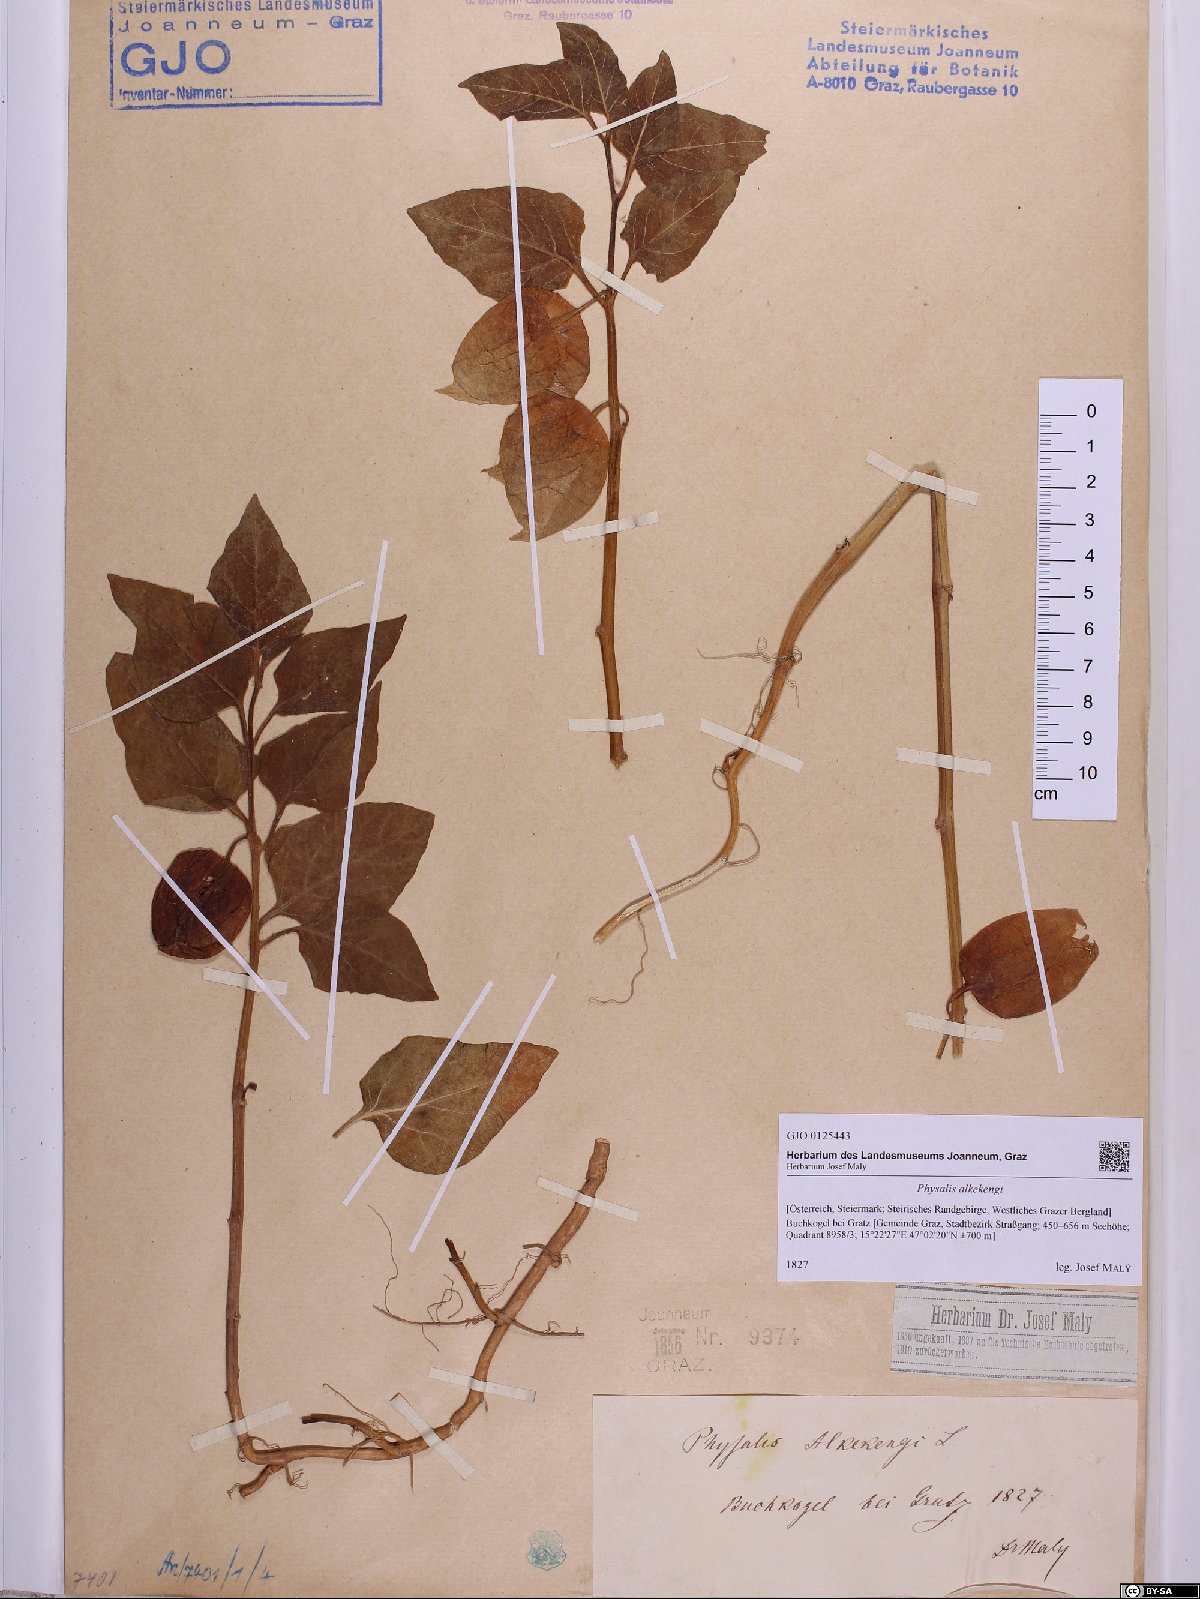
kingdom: Plantae
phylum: Tracheophyta
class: Magnoliopsida
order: Solanales
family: Solanaceae
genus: Alkekengi
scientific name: Alkekengi officinarum
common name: Japanese-lantern
